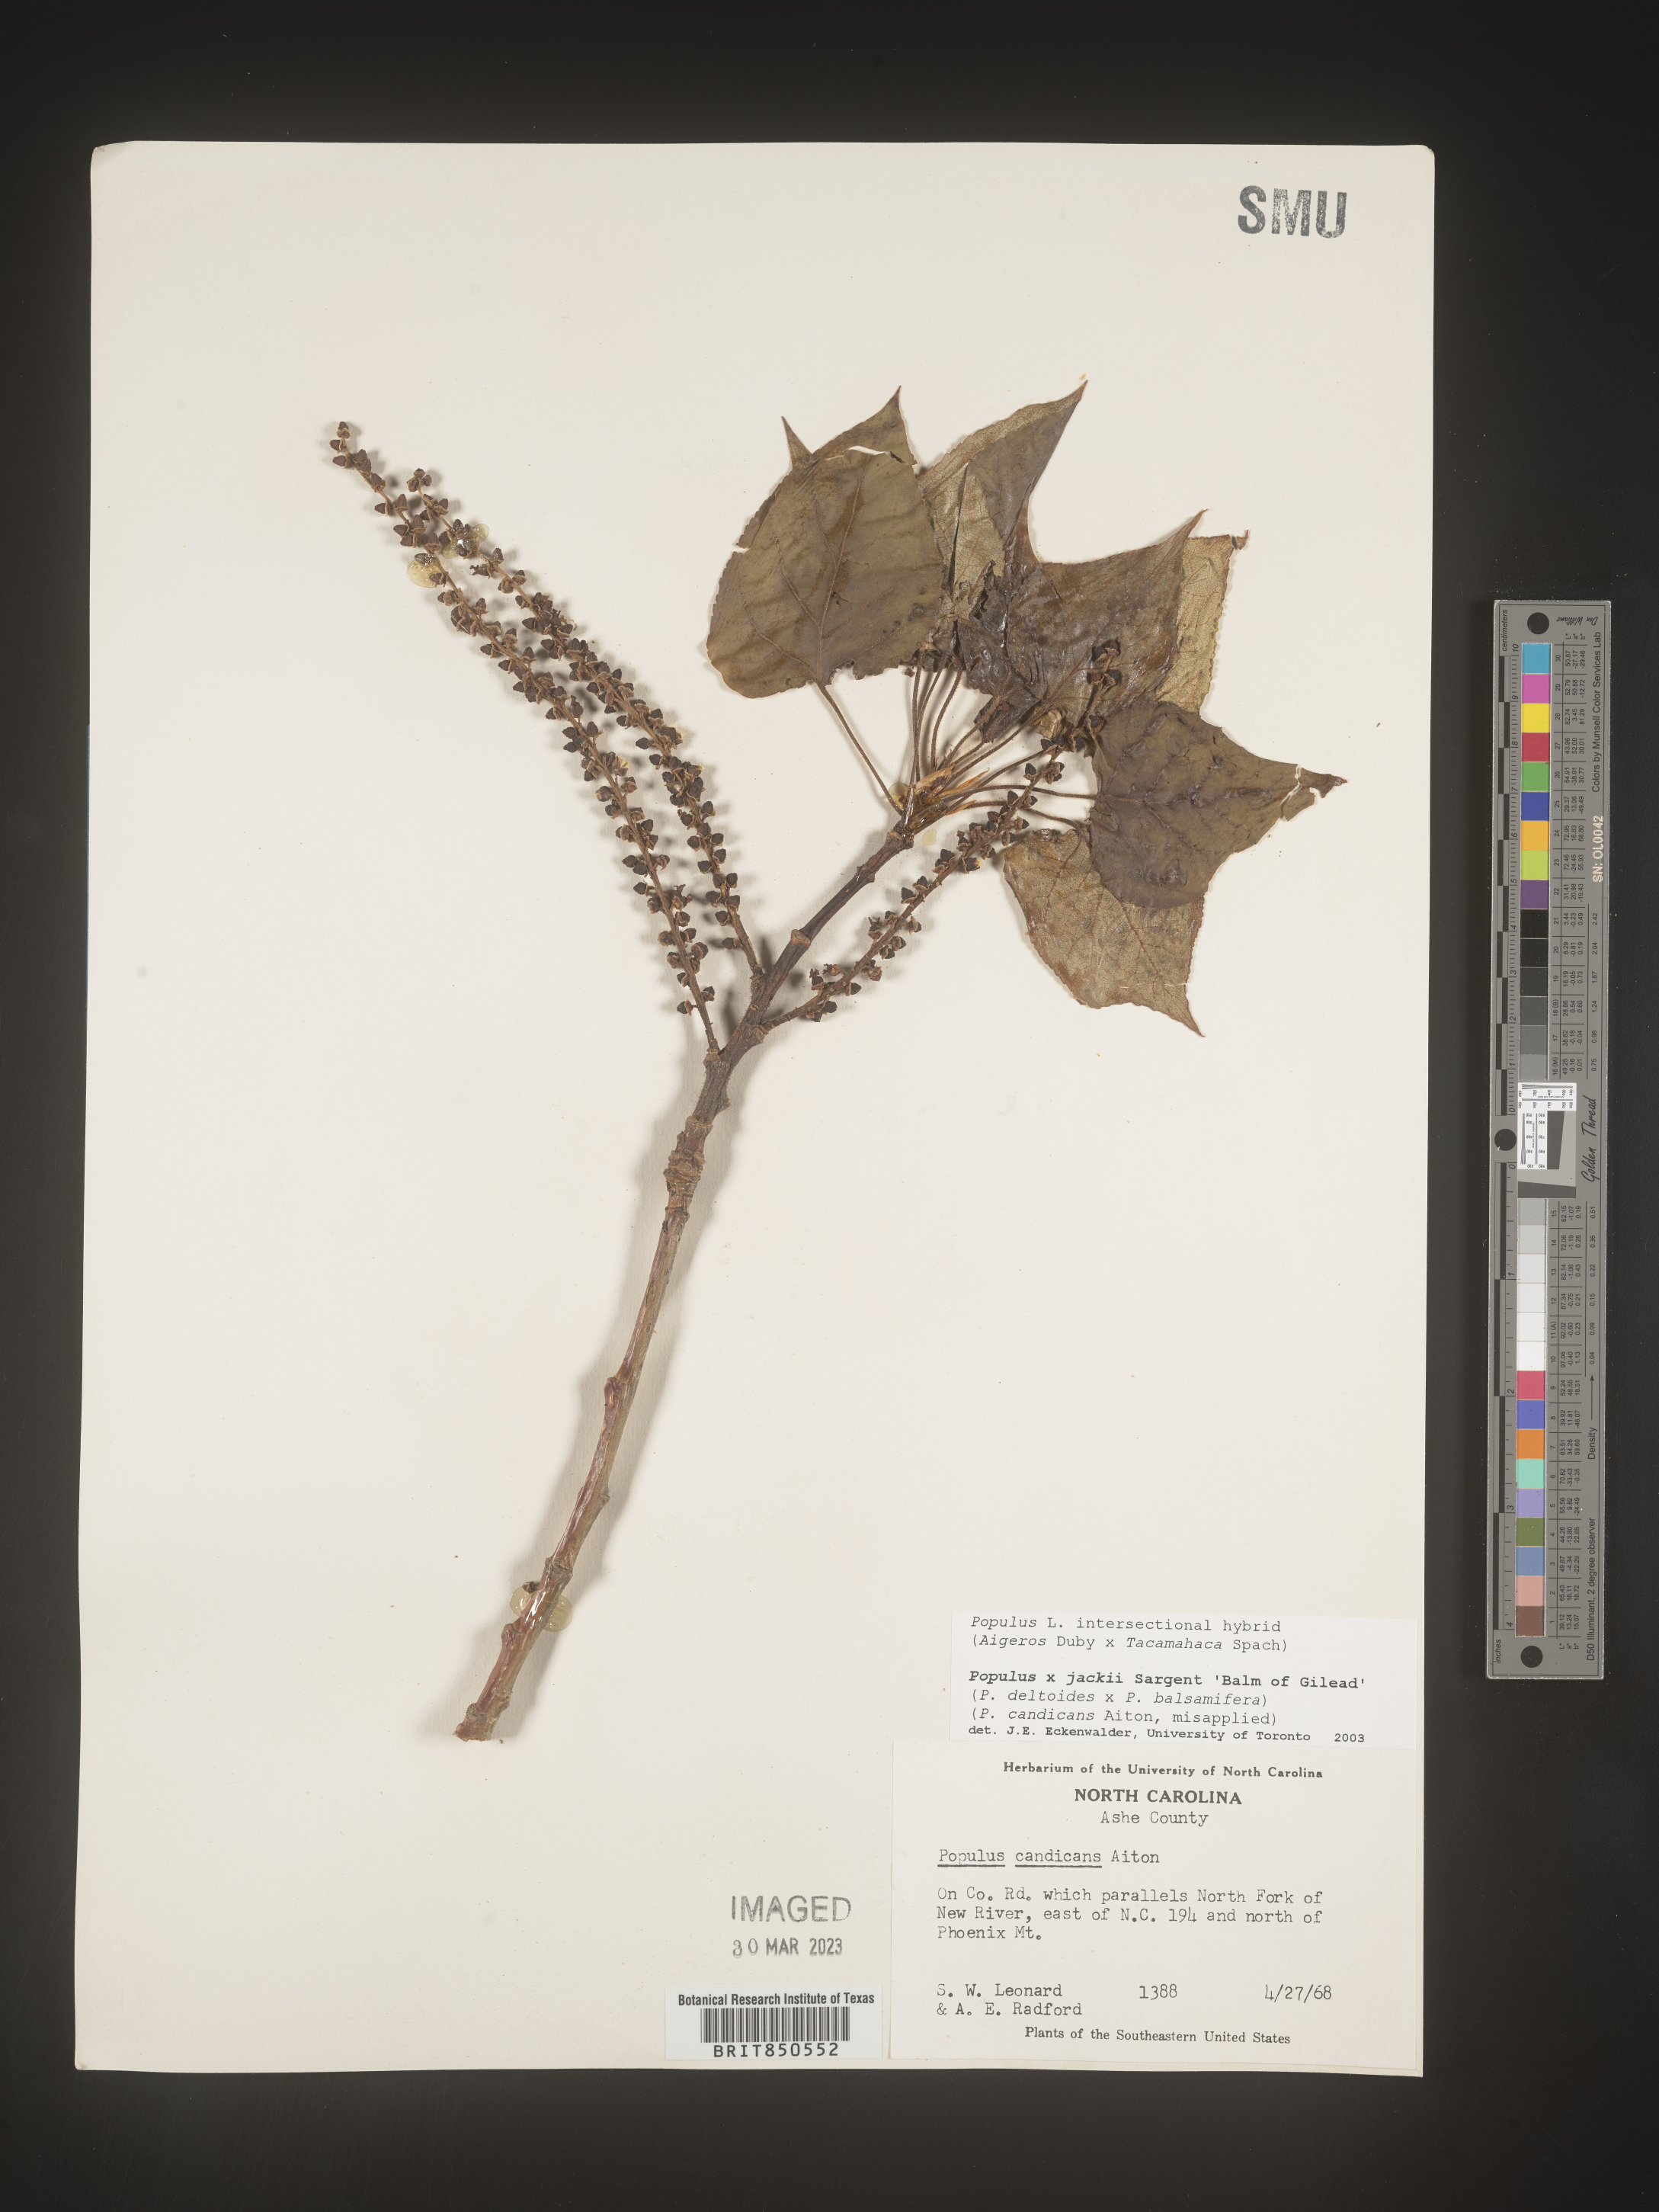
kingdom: Plantae
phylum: Tracheophyta
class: Magnoliopsida
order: Malpighiales
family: Salicaceae
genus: Populus
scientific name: Populus
